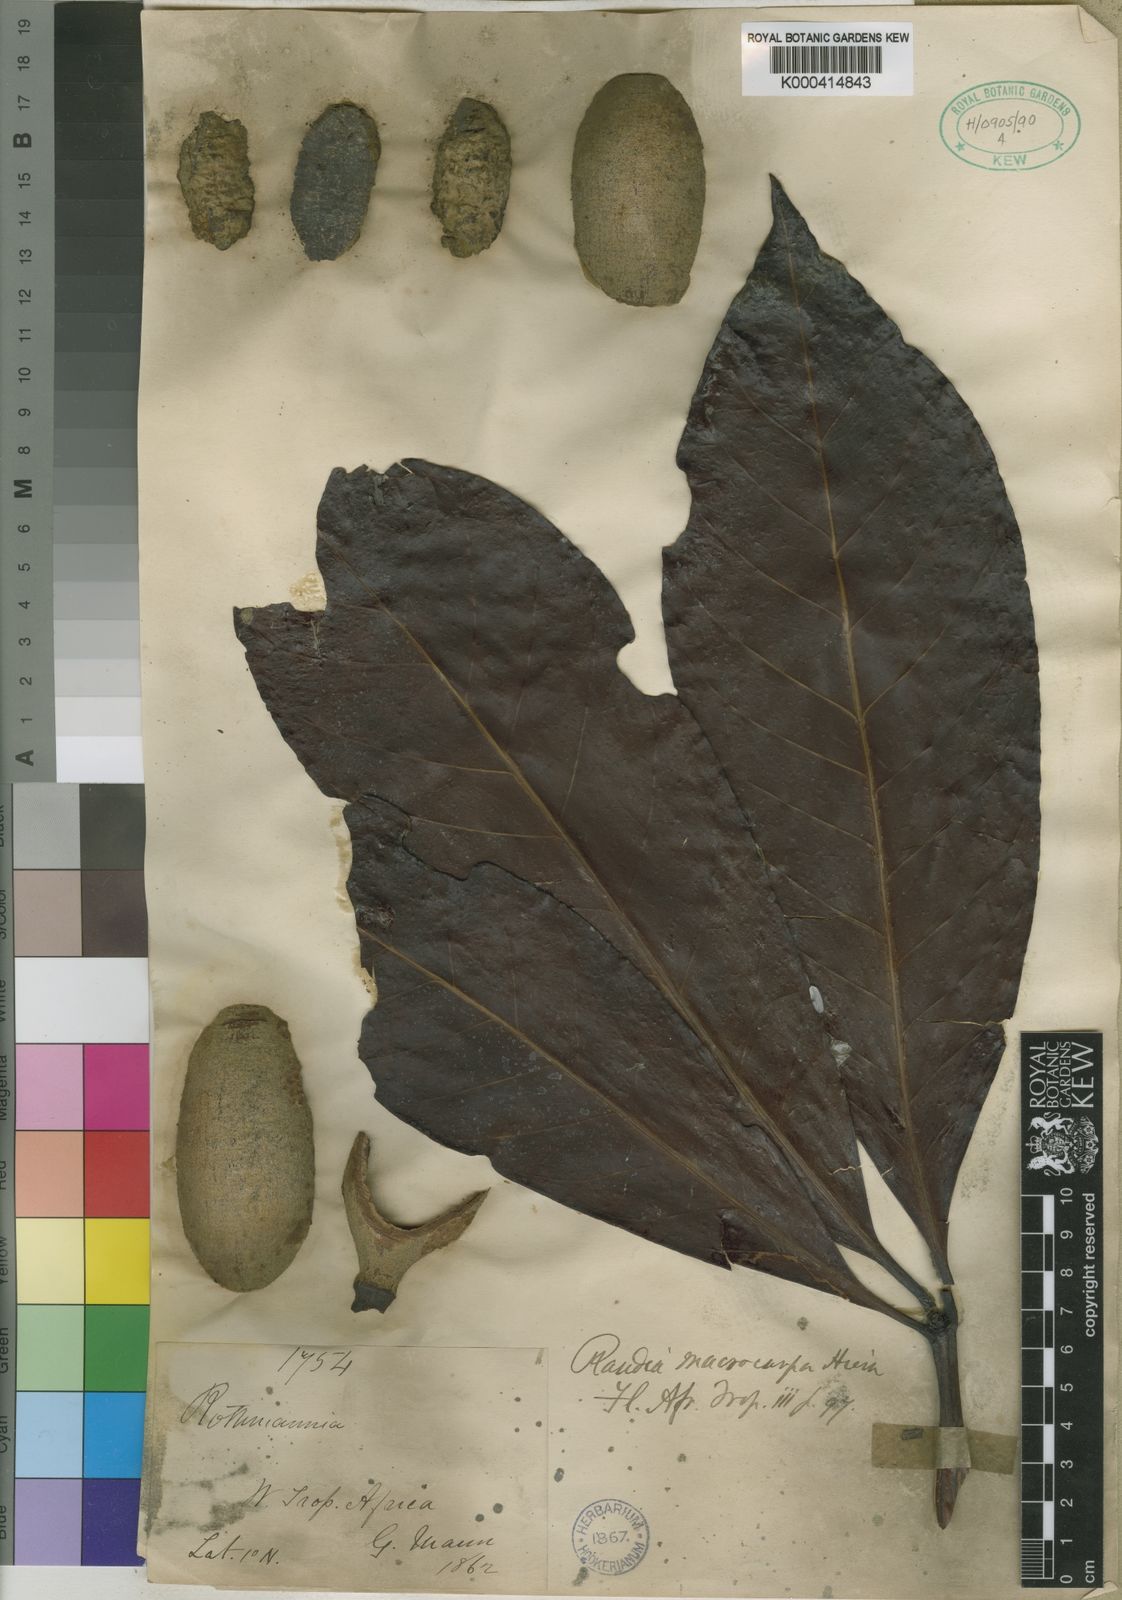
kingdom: Plantae
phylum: Tracheophyta
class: Magnoliopsida
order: Gentianales
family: Rubiaceae
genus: Rothmannia
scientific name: Rothmannia macrocarpa
